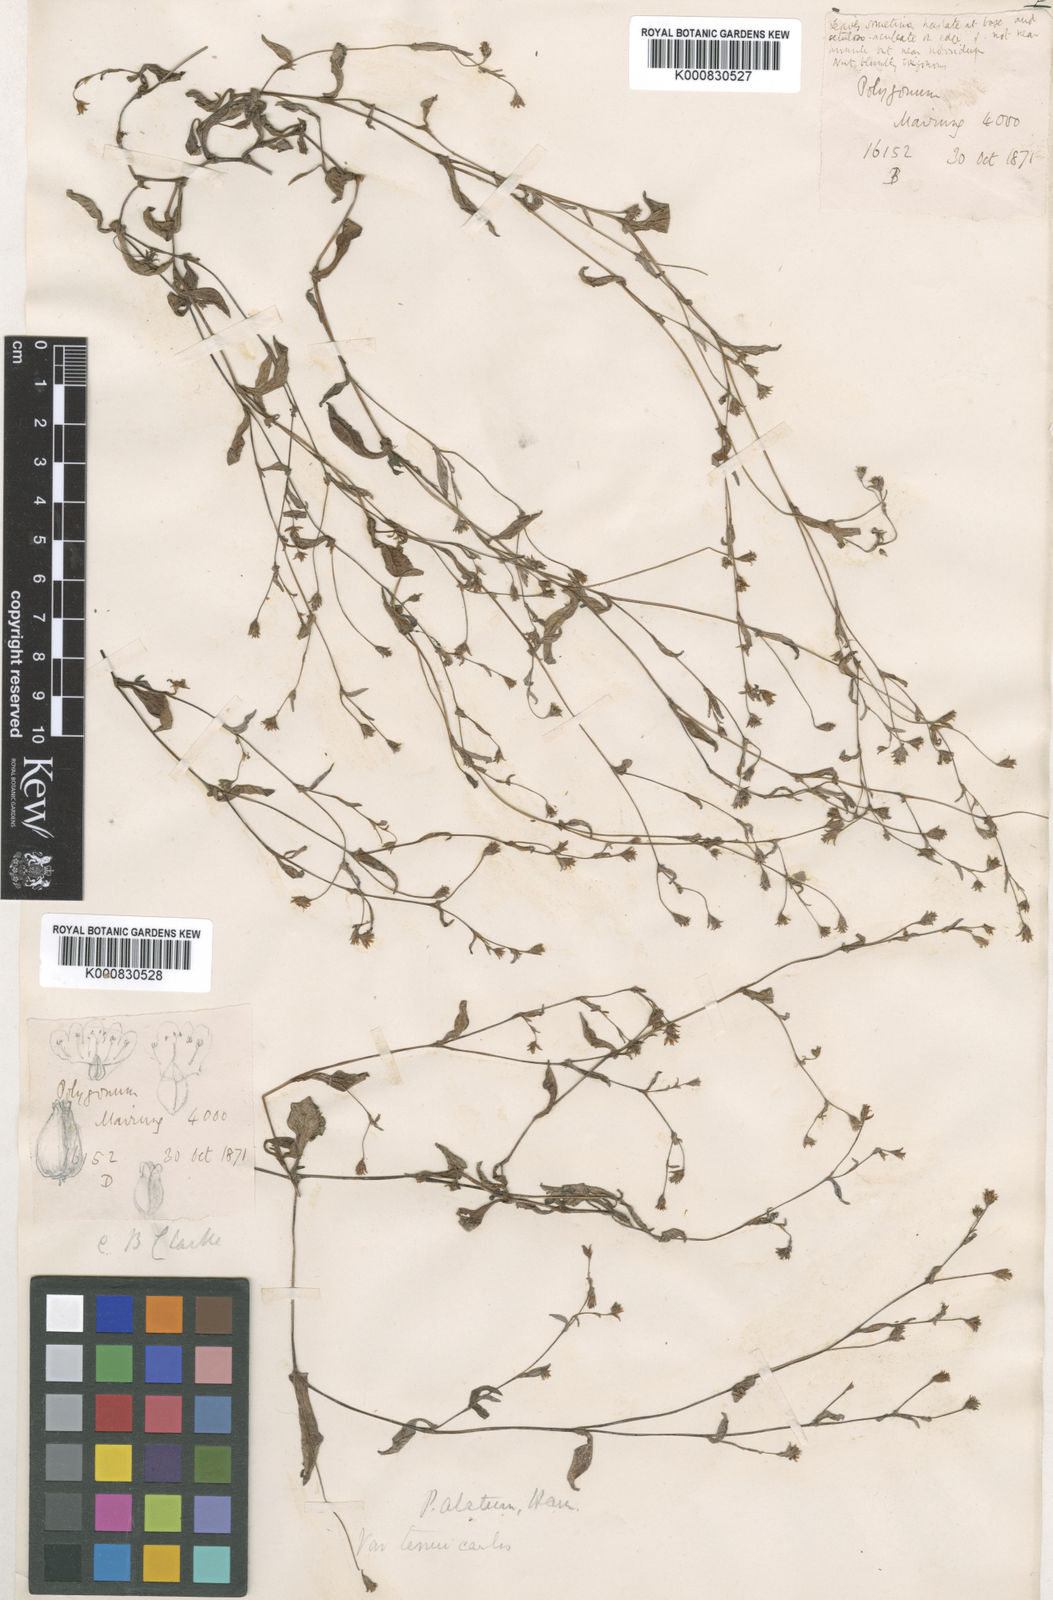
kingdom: Plantae
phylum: Tracheophyta
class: Magnoliopsida
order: Caryophyllales
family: Polygonaceae
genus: Polygonum
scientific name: Polygonum
